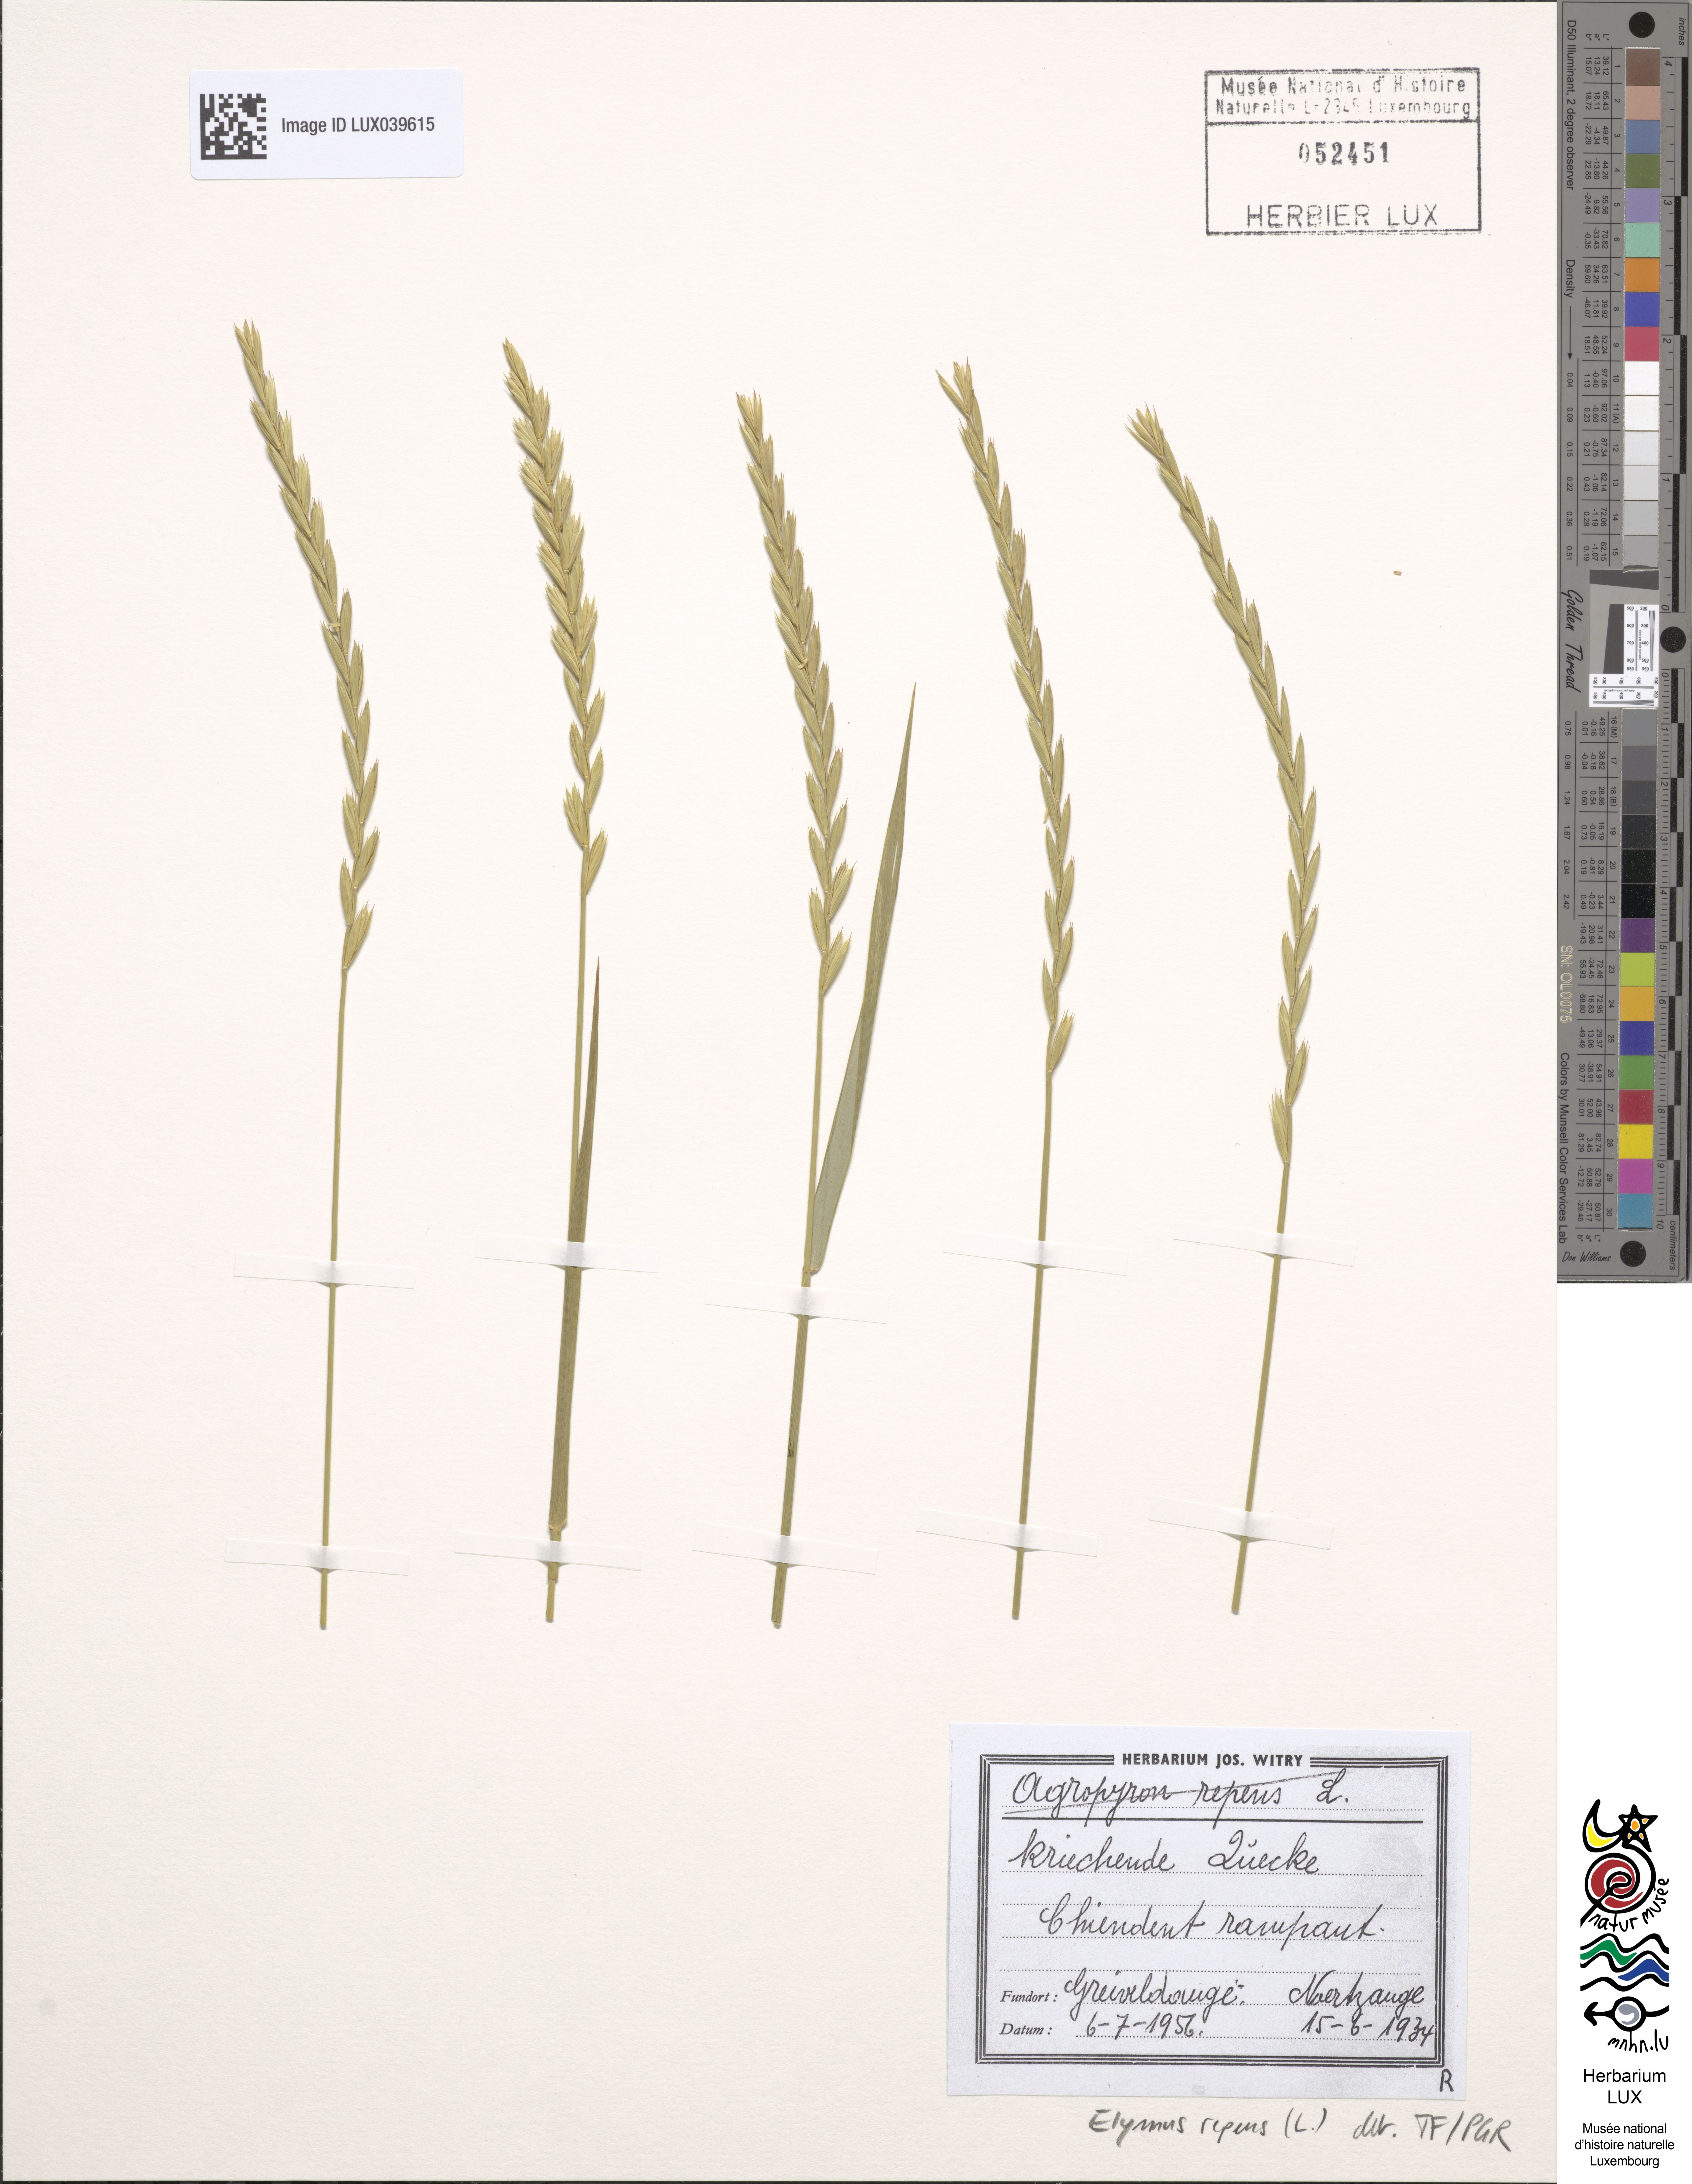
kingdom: Plantae
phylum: Tracheophyta
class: Liliopsida
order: Poales
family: Poaceae
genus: Elymus
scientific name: Elymus repens
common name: Quackgrass
